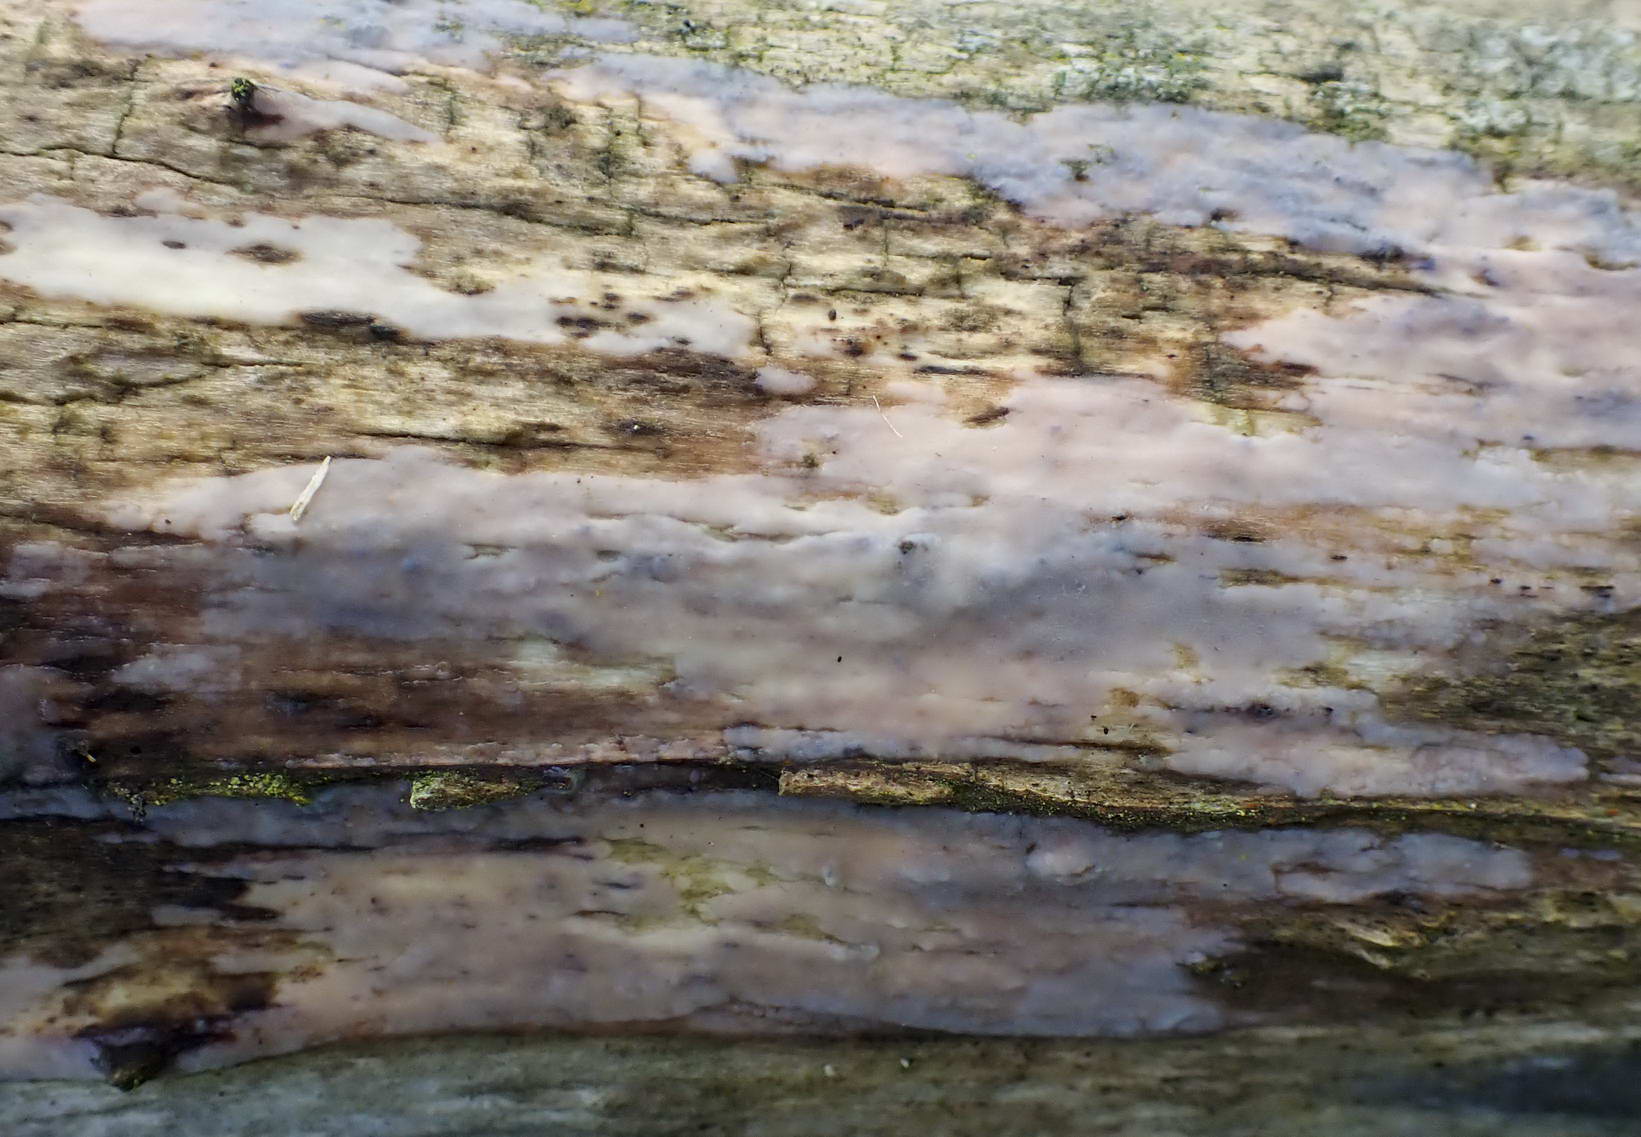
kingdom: Fungi
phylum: Basidiomycota
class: Tremellomycetes
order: Tremellales
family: Exidiaceae
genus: Exidiopsis
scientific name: Exidiopsis effusa
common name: smuk bævrehinde
